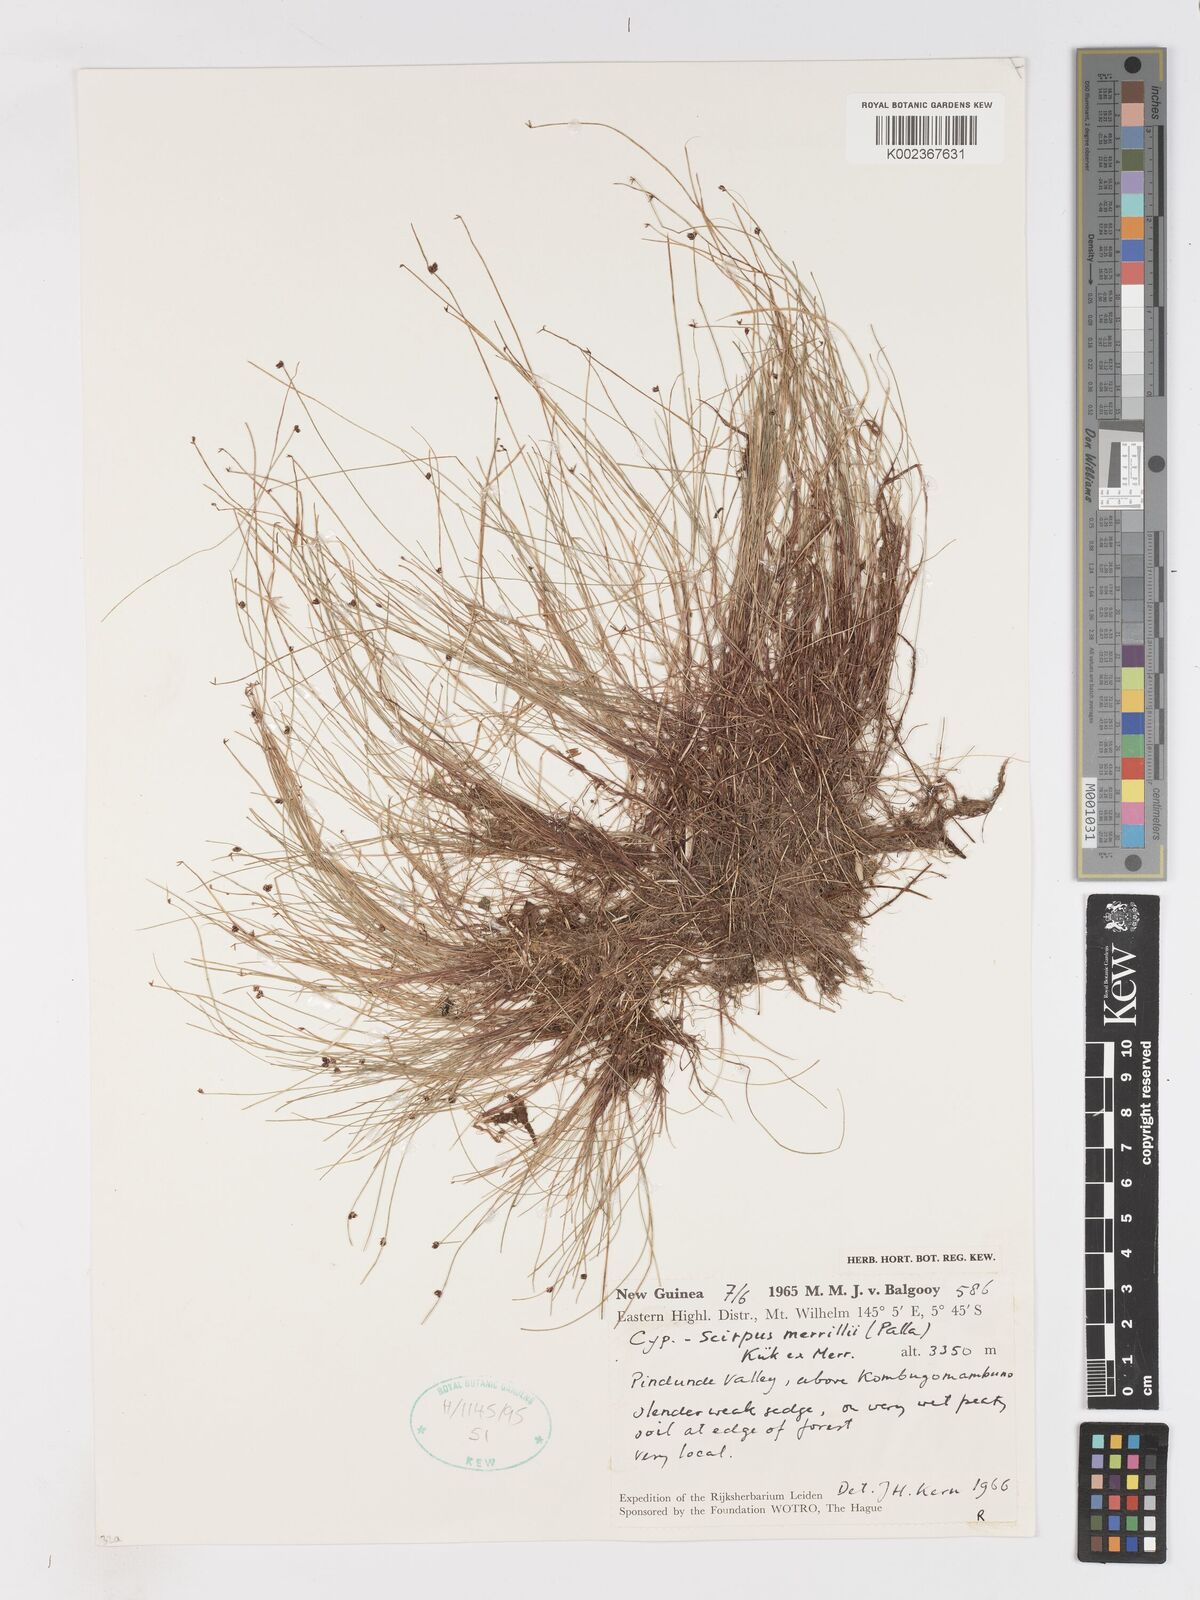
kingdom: Plantae
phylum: Tracheophyta
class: Liliopsida
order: Poales
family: Cyperaceae
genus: Isolepis
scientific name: Isolepis habra
